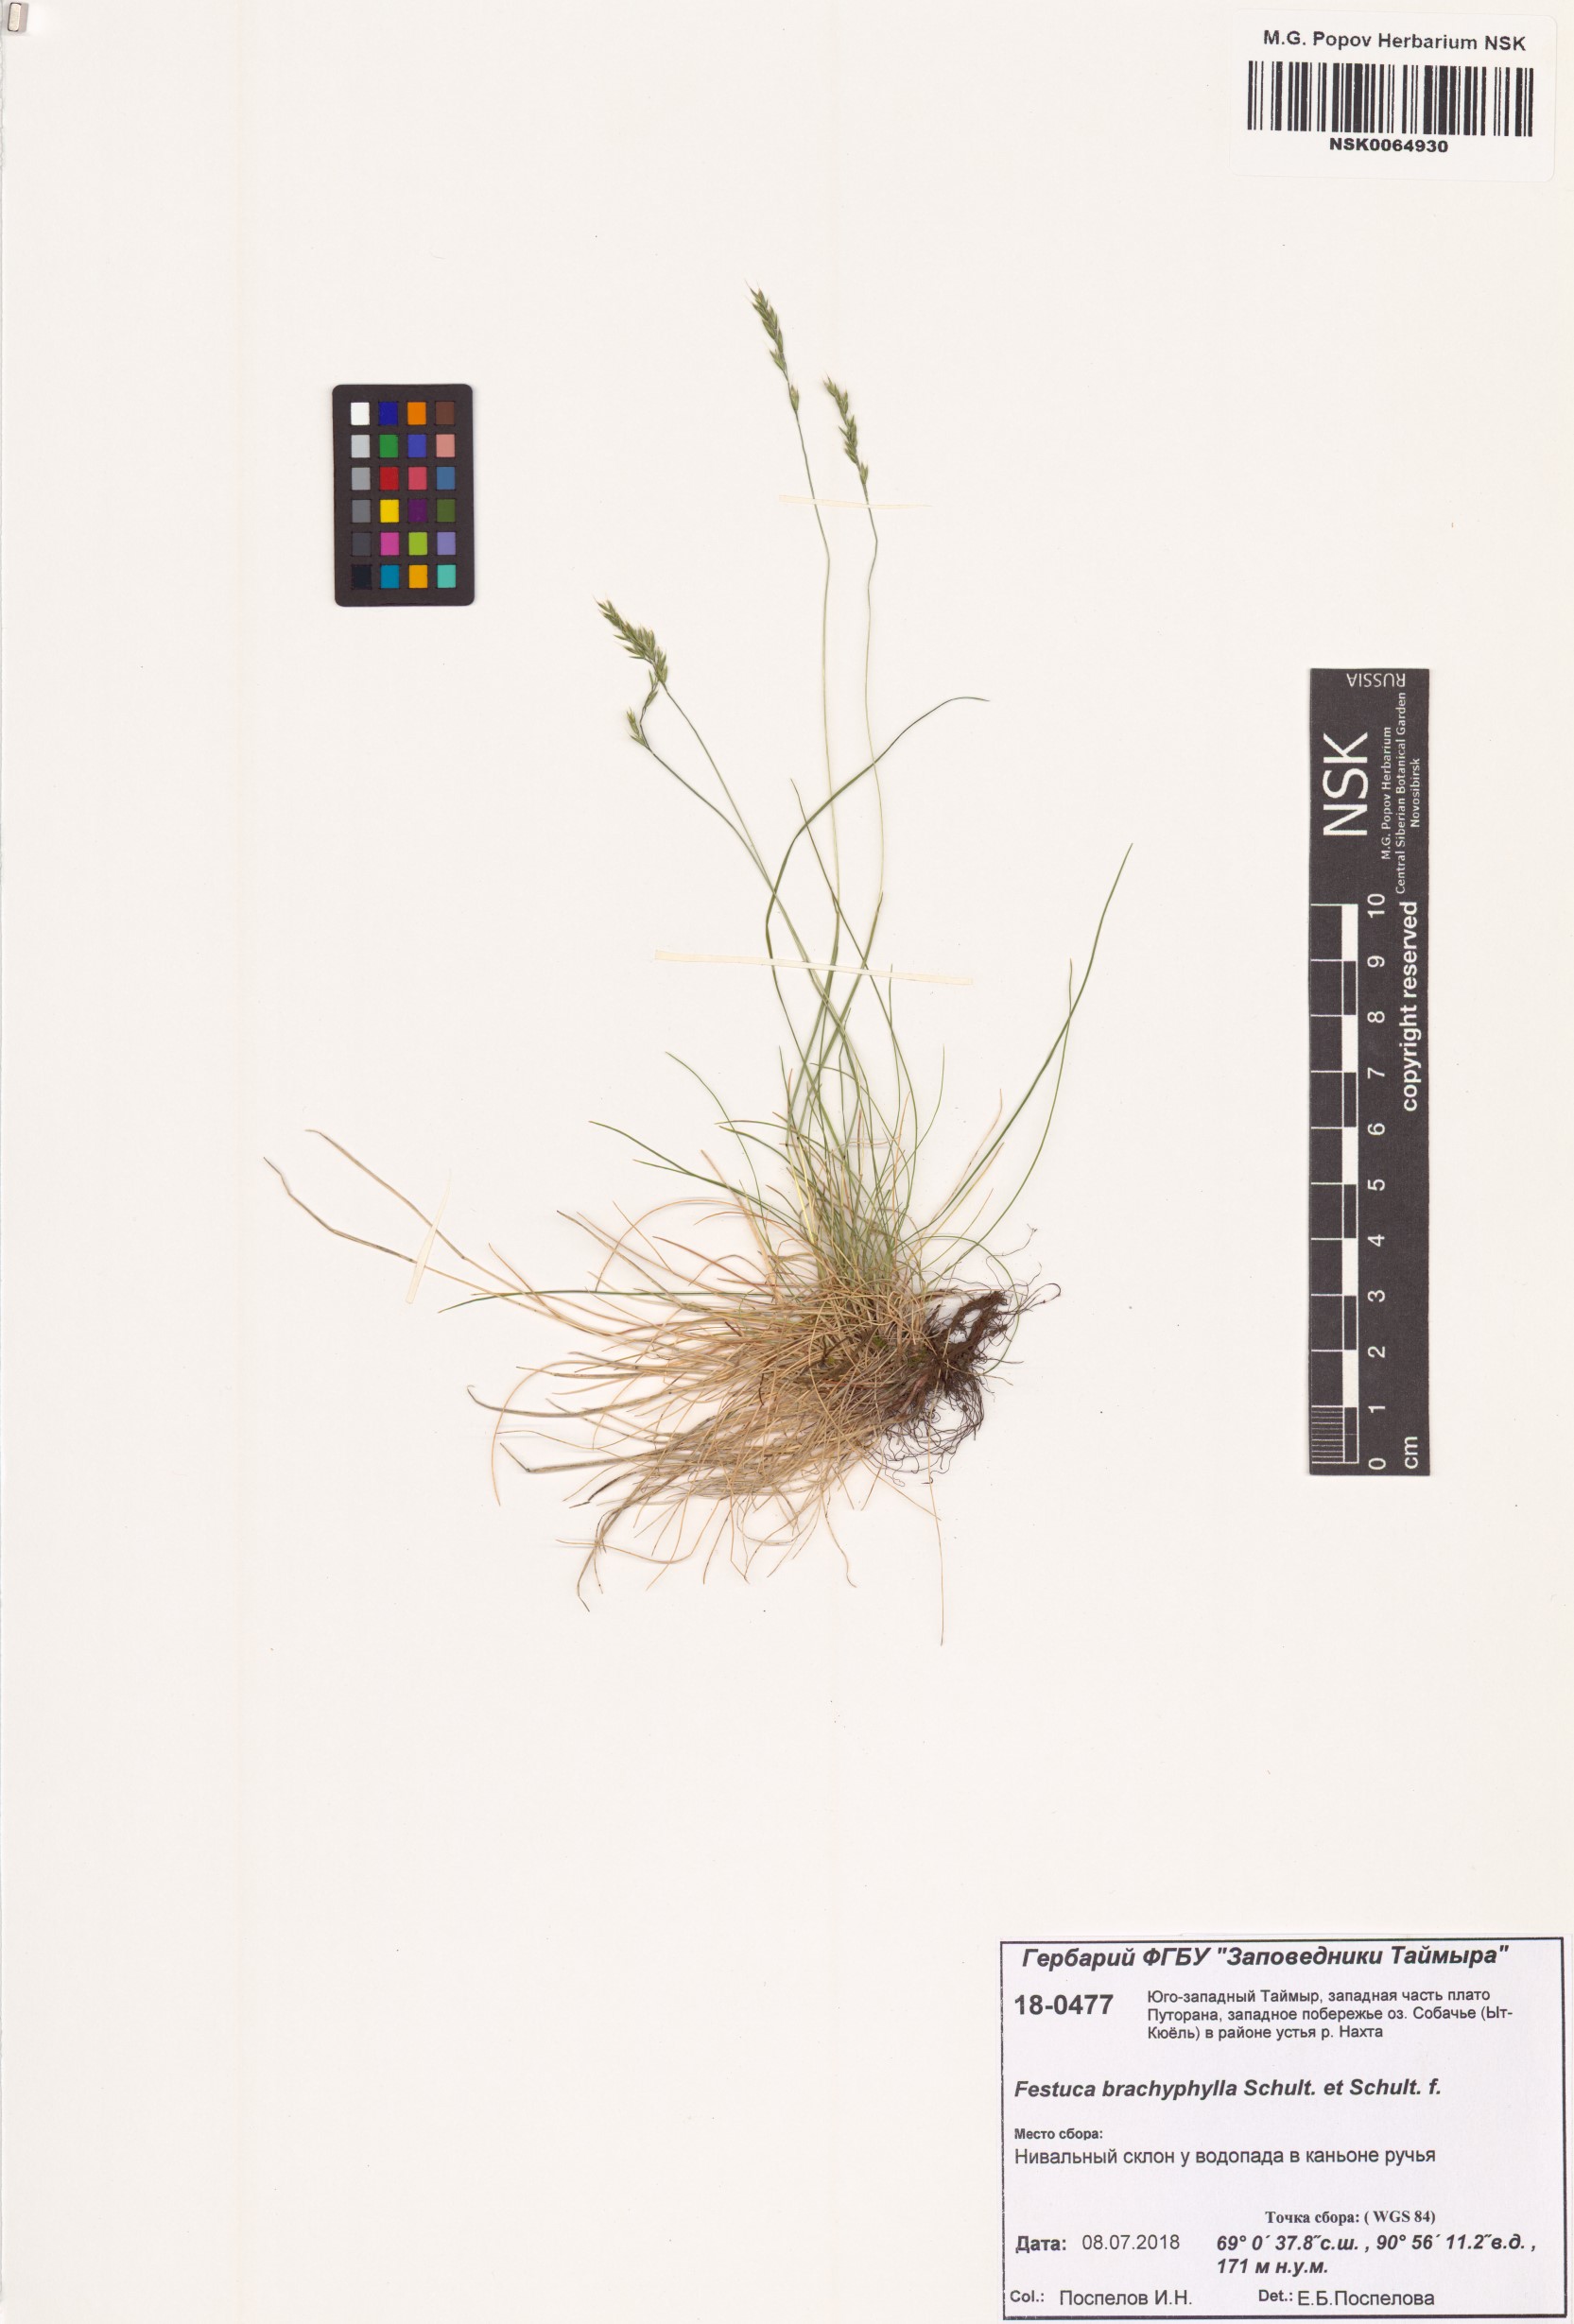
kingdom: Plantae
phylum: Tracheophyta
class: Liliopsida
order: Poales
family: Poaceae
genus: Festuca
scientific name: Festuca brachyphylla
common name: Alpine fescue
